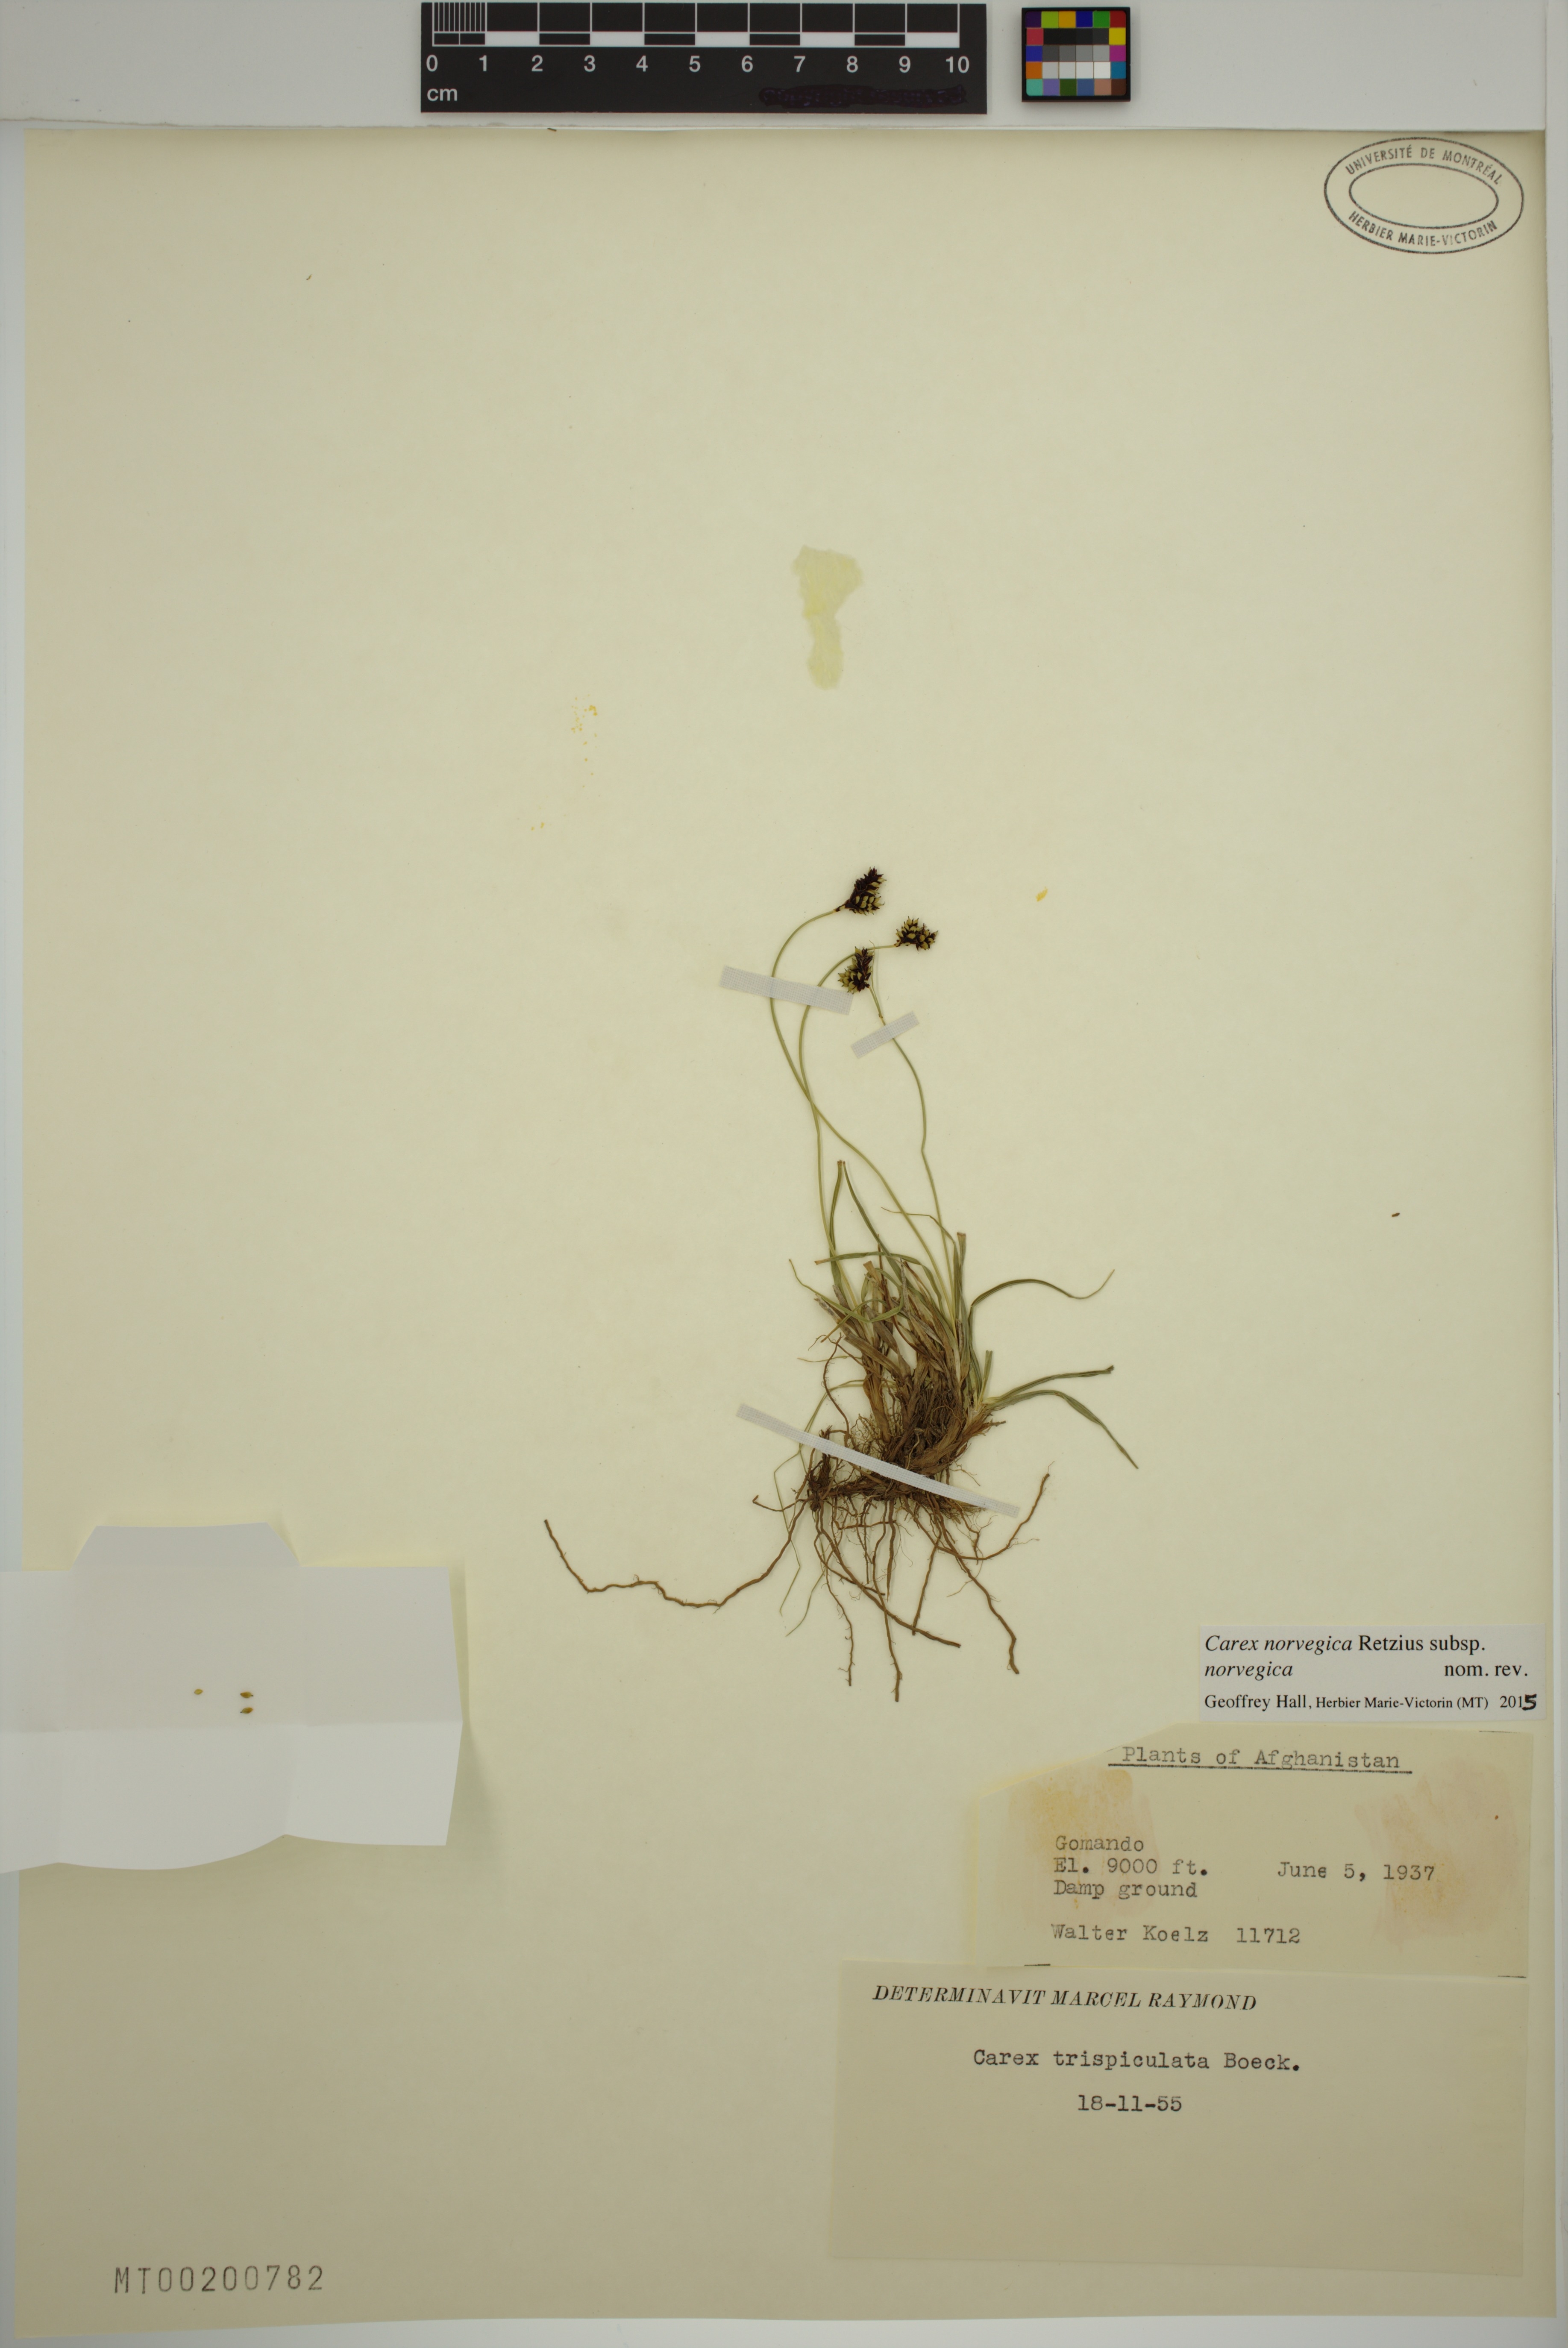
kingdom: Plantae
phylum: Tracheophyta
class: Liliopsida
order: Poales
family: Cyperaceae
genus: Carex
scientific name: Carex norvegica
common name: Close-headed alpine-sedge
